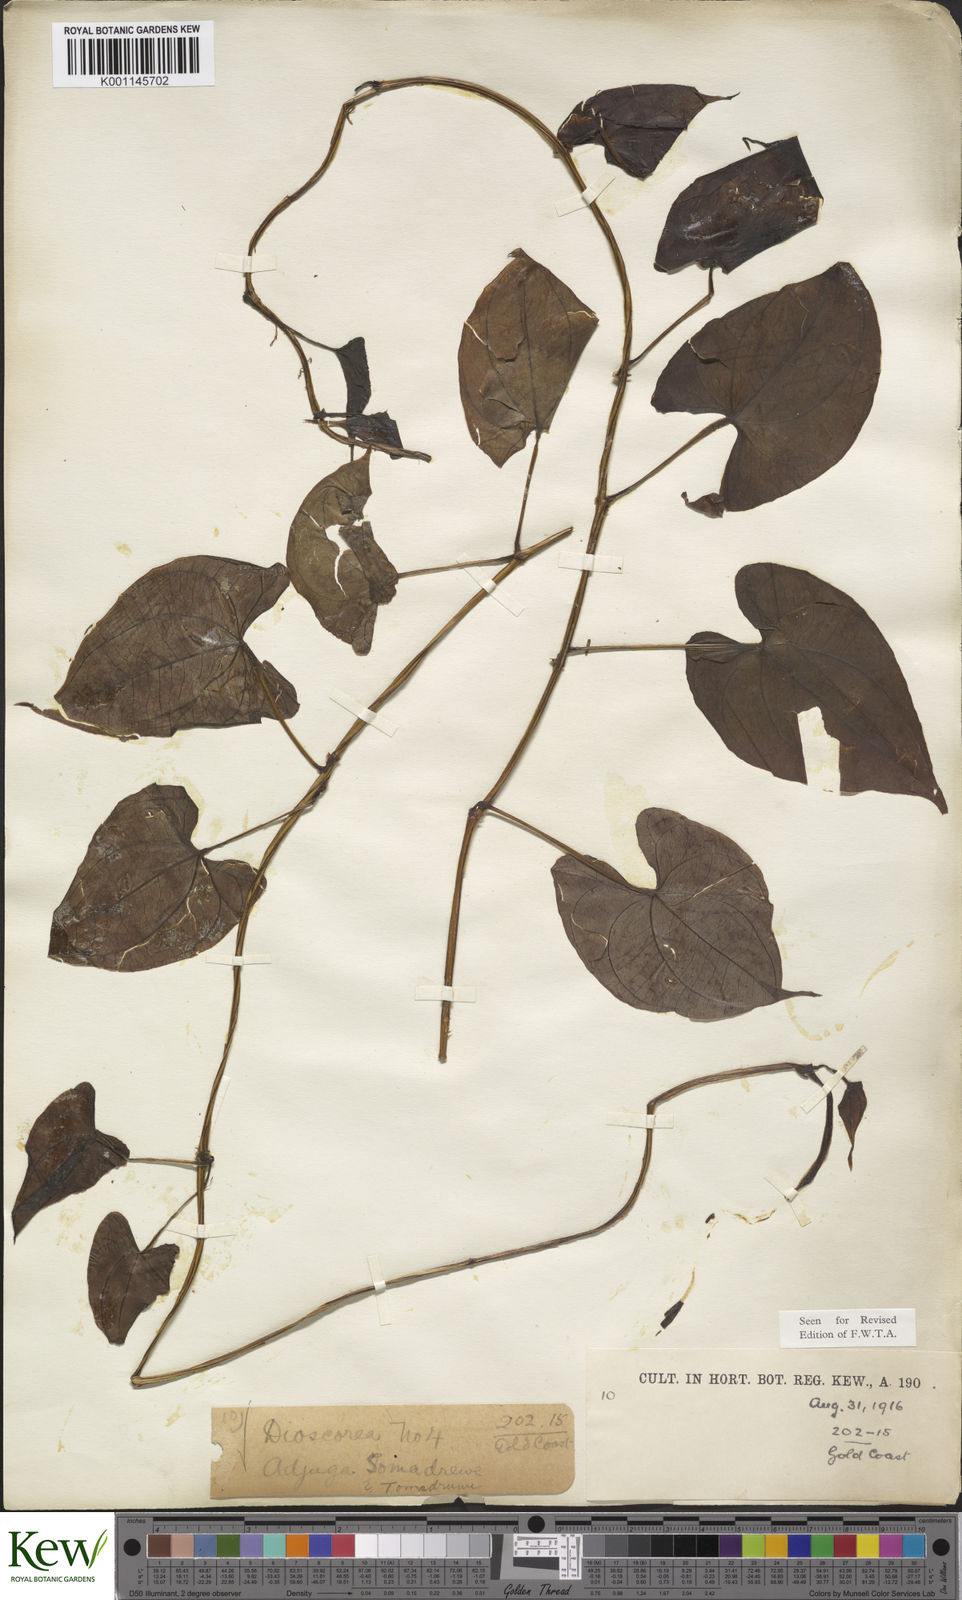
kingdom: Plantae
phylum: Tracheophyta
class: Liliopsida
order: Dioscoreales
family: Dioscoreaceae
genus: Dioscorea
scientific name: Dioscorea alata
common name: Water yam
